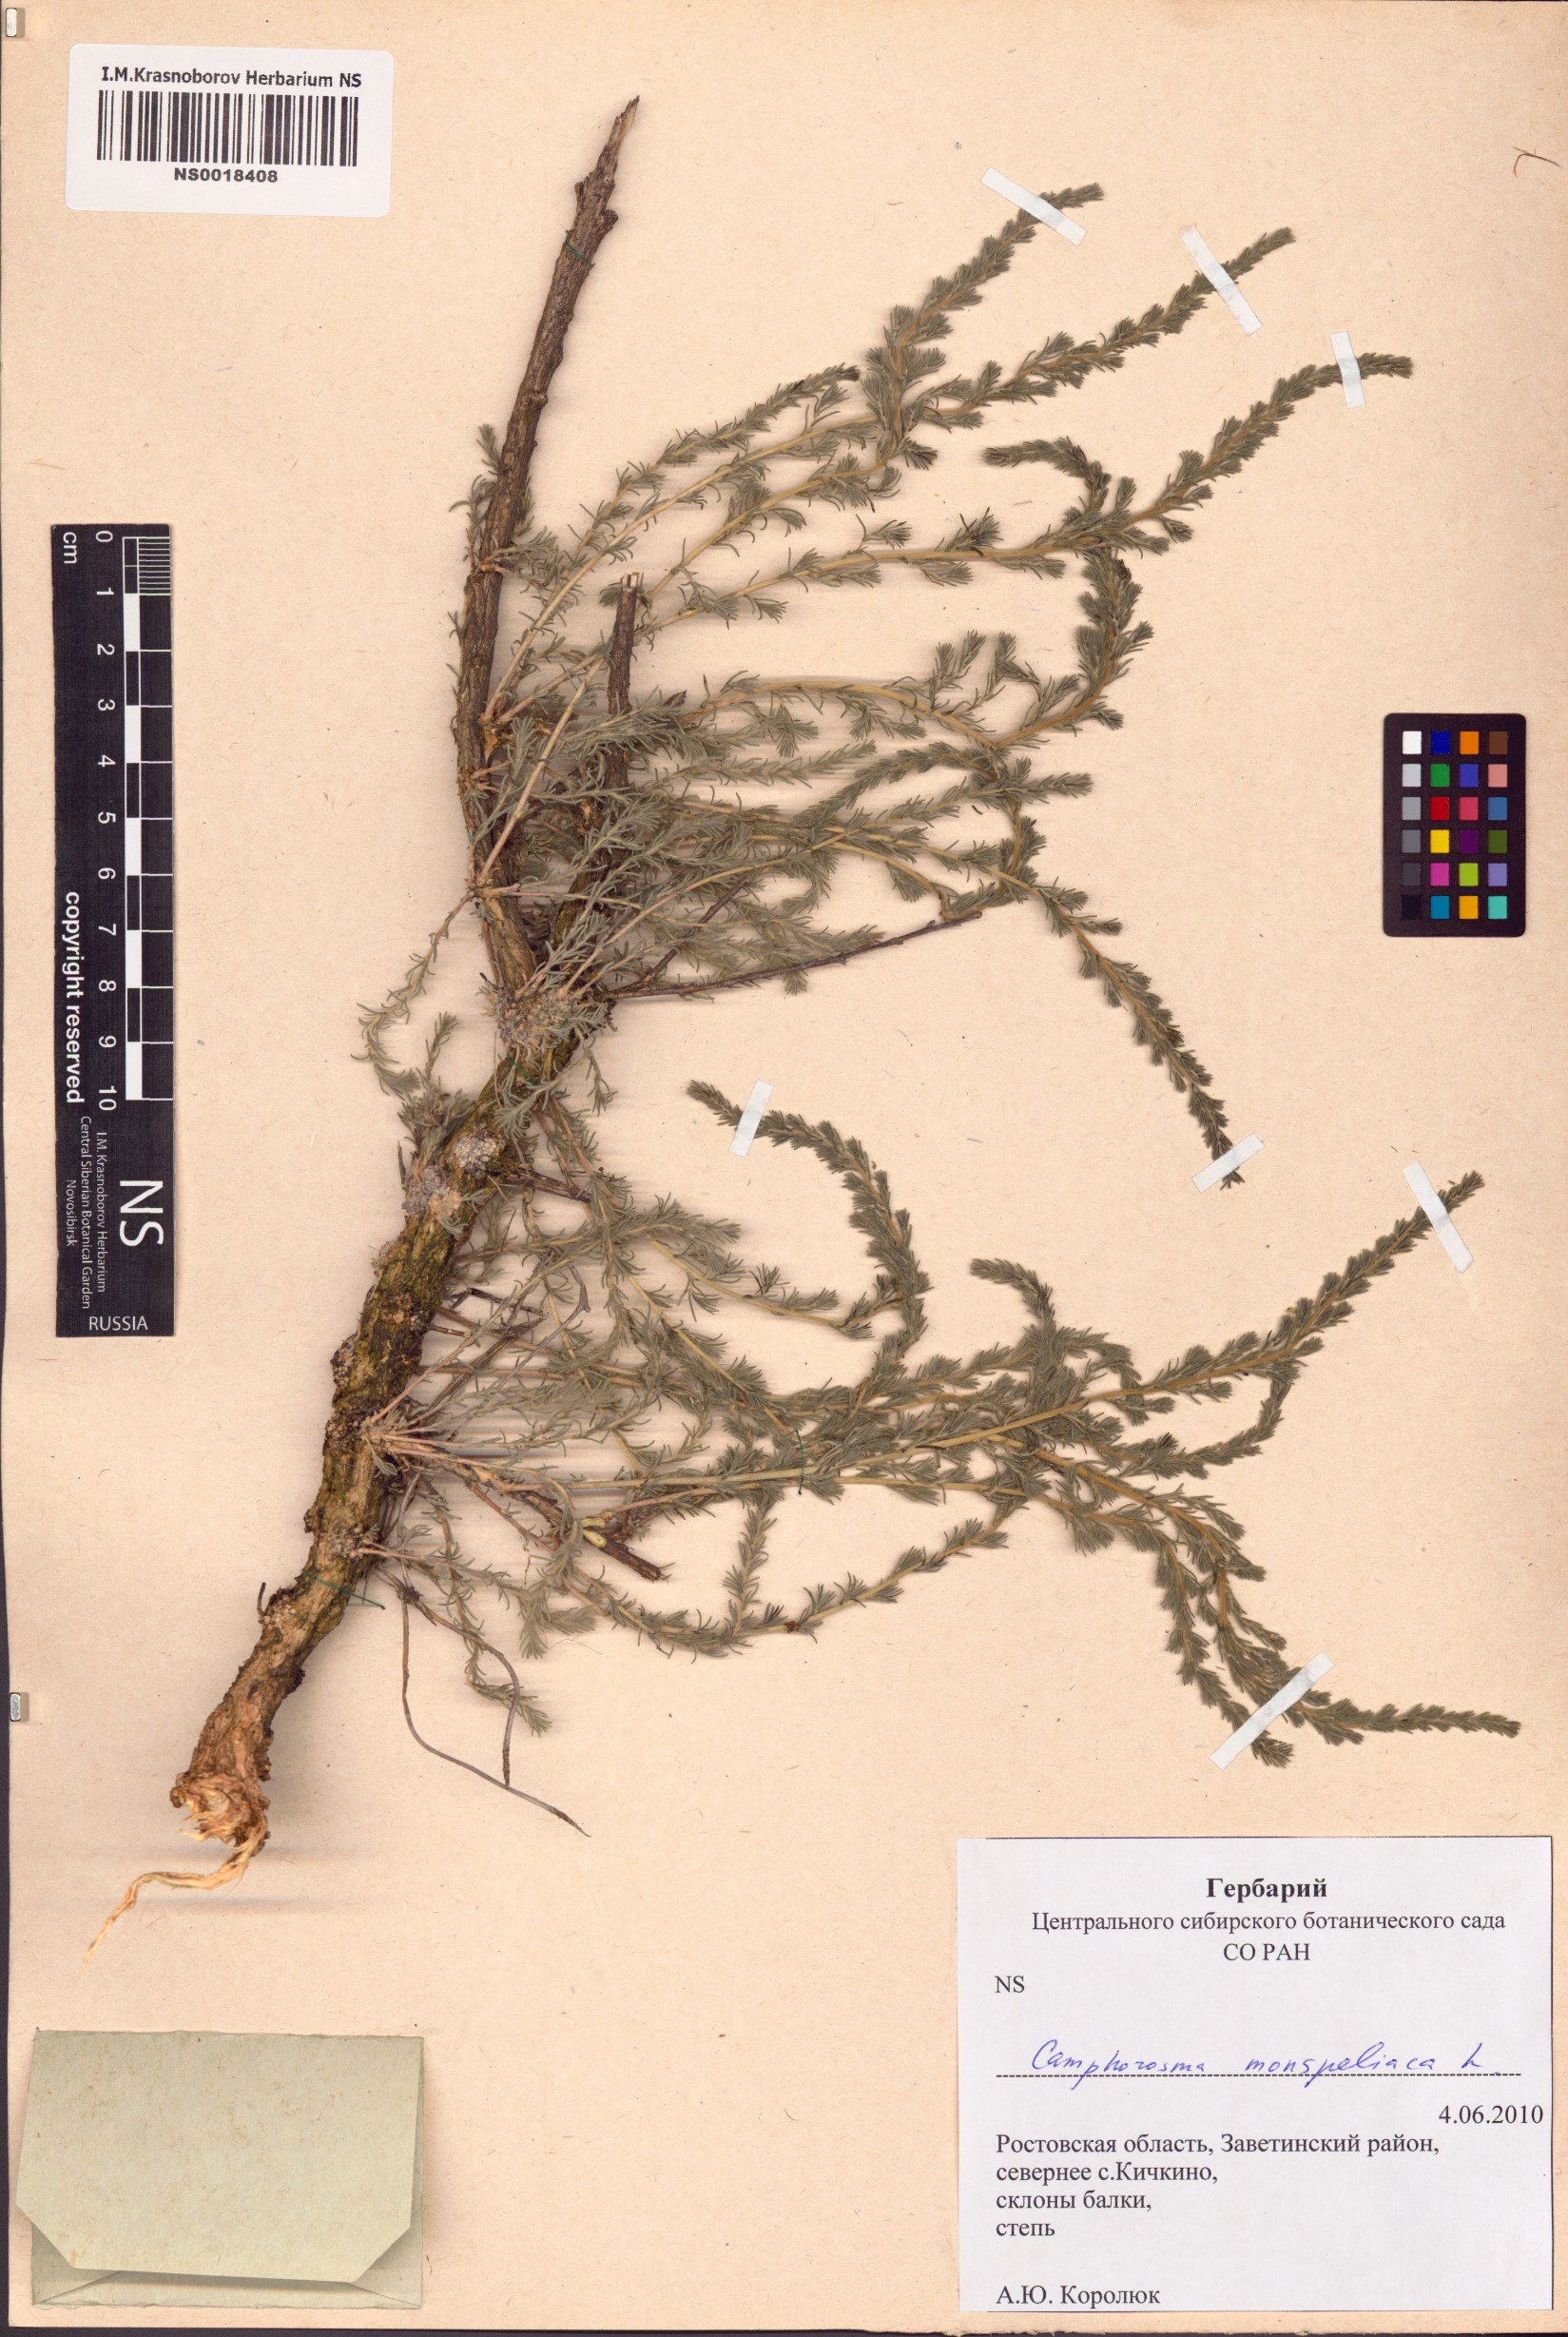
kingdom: Plantae
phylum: Tracheophyta
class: Magnoliopsida
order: Caryophyllales
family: Amaranthaceae
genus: Camphorosma
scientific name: Camphorosma monspeliaca
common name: Camphorfume
